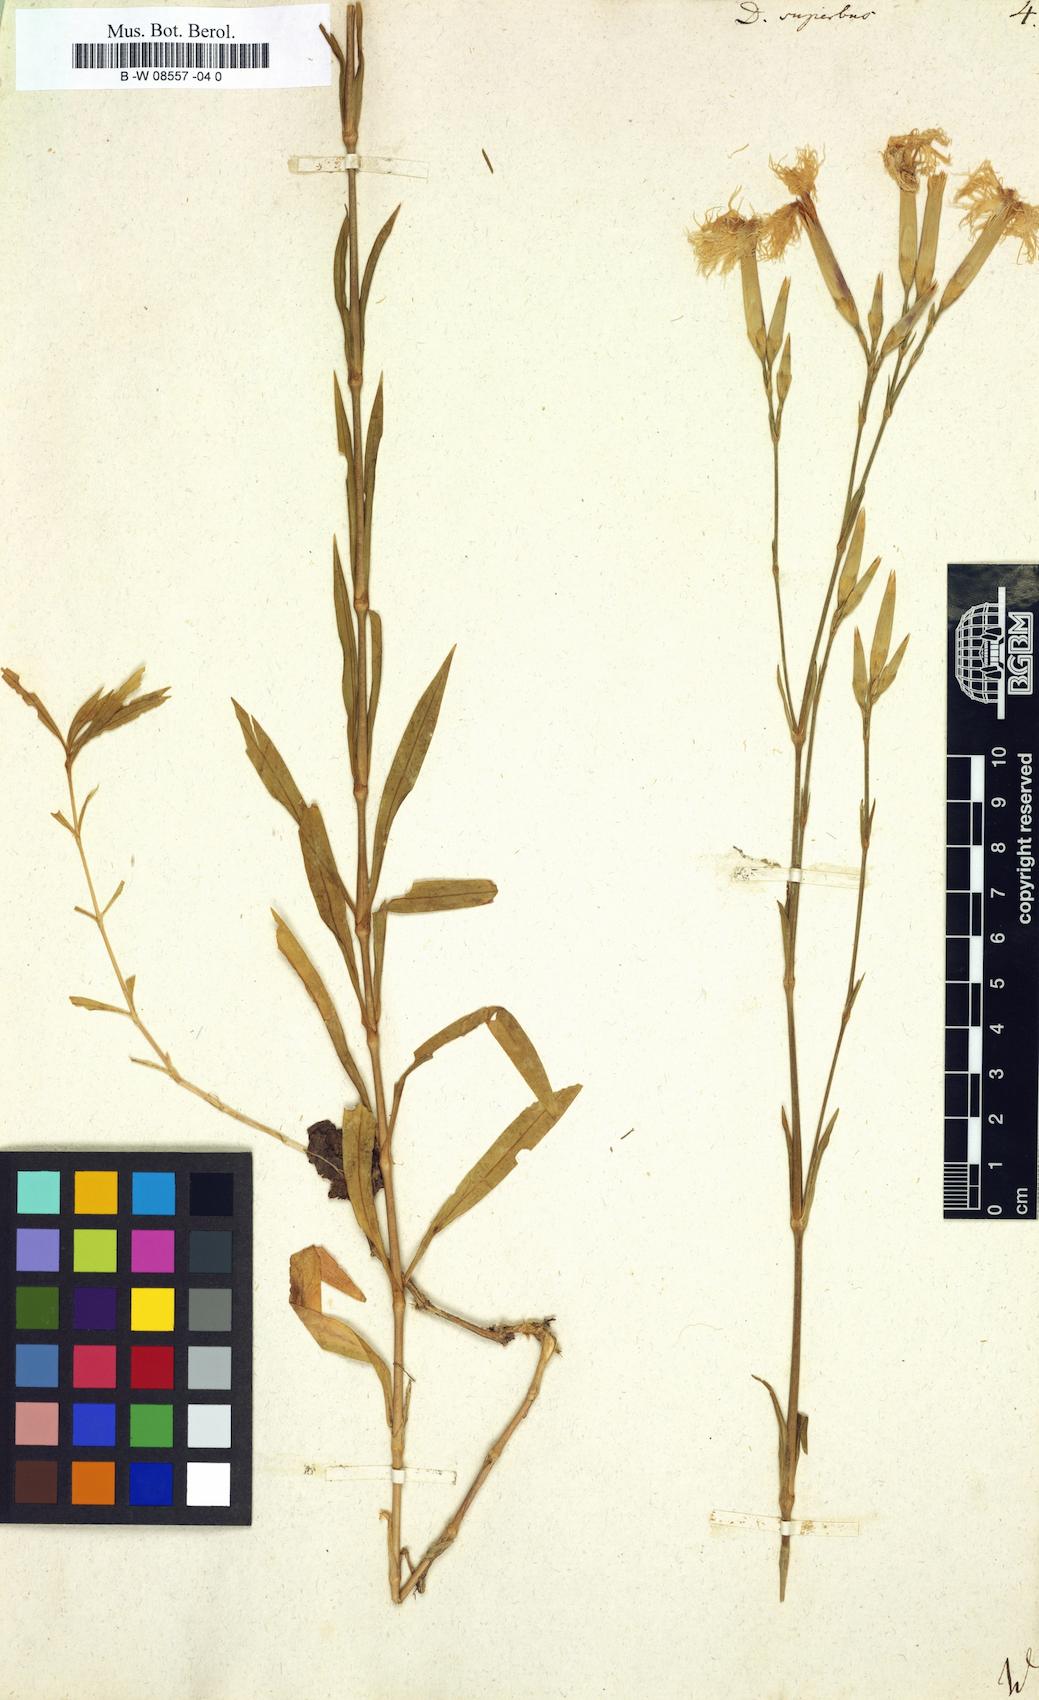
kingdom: Plantae
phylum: Tracheophyta
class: Magnoliopsida
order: Caryophyllales
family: Caryophyllaceae
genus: Dianthus
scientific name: Dianthus superbus
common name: Fringed pink
